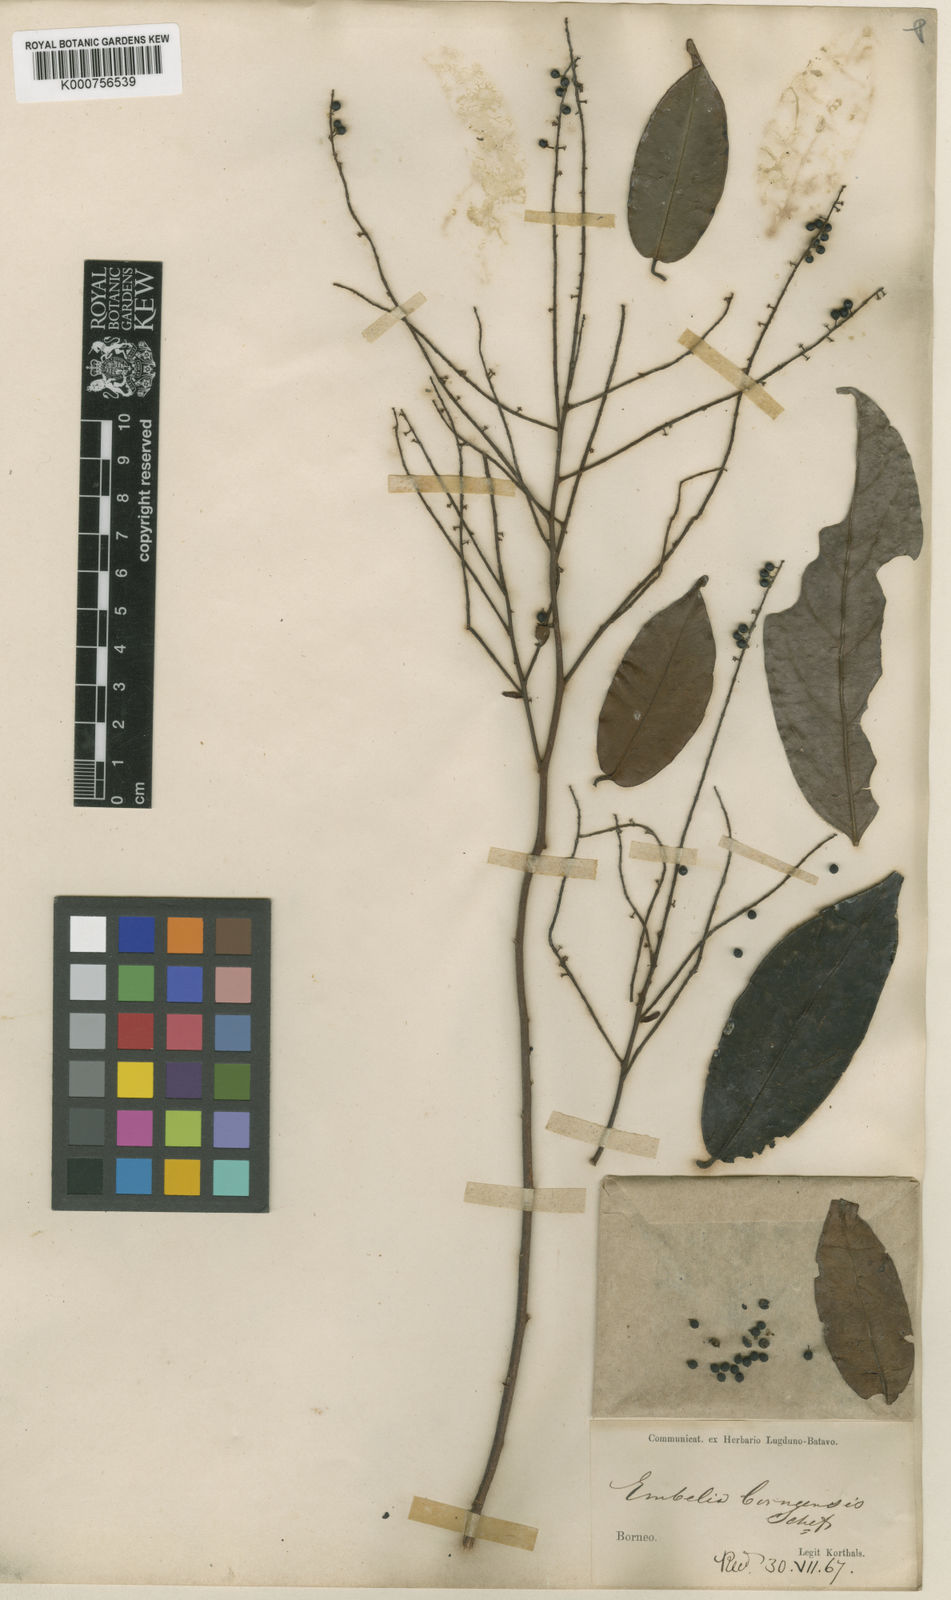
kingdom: Plantae
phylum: Tracheophyta
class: Magnoliopsida
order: Ericales
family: Primulaceae
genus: Embelia
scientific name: Embelia dasythyrsa
